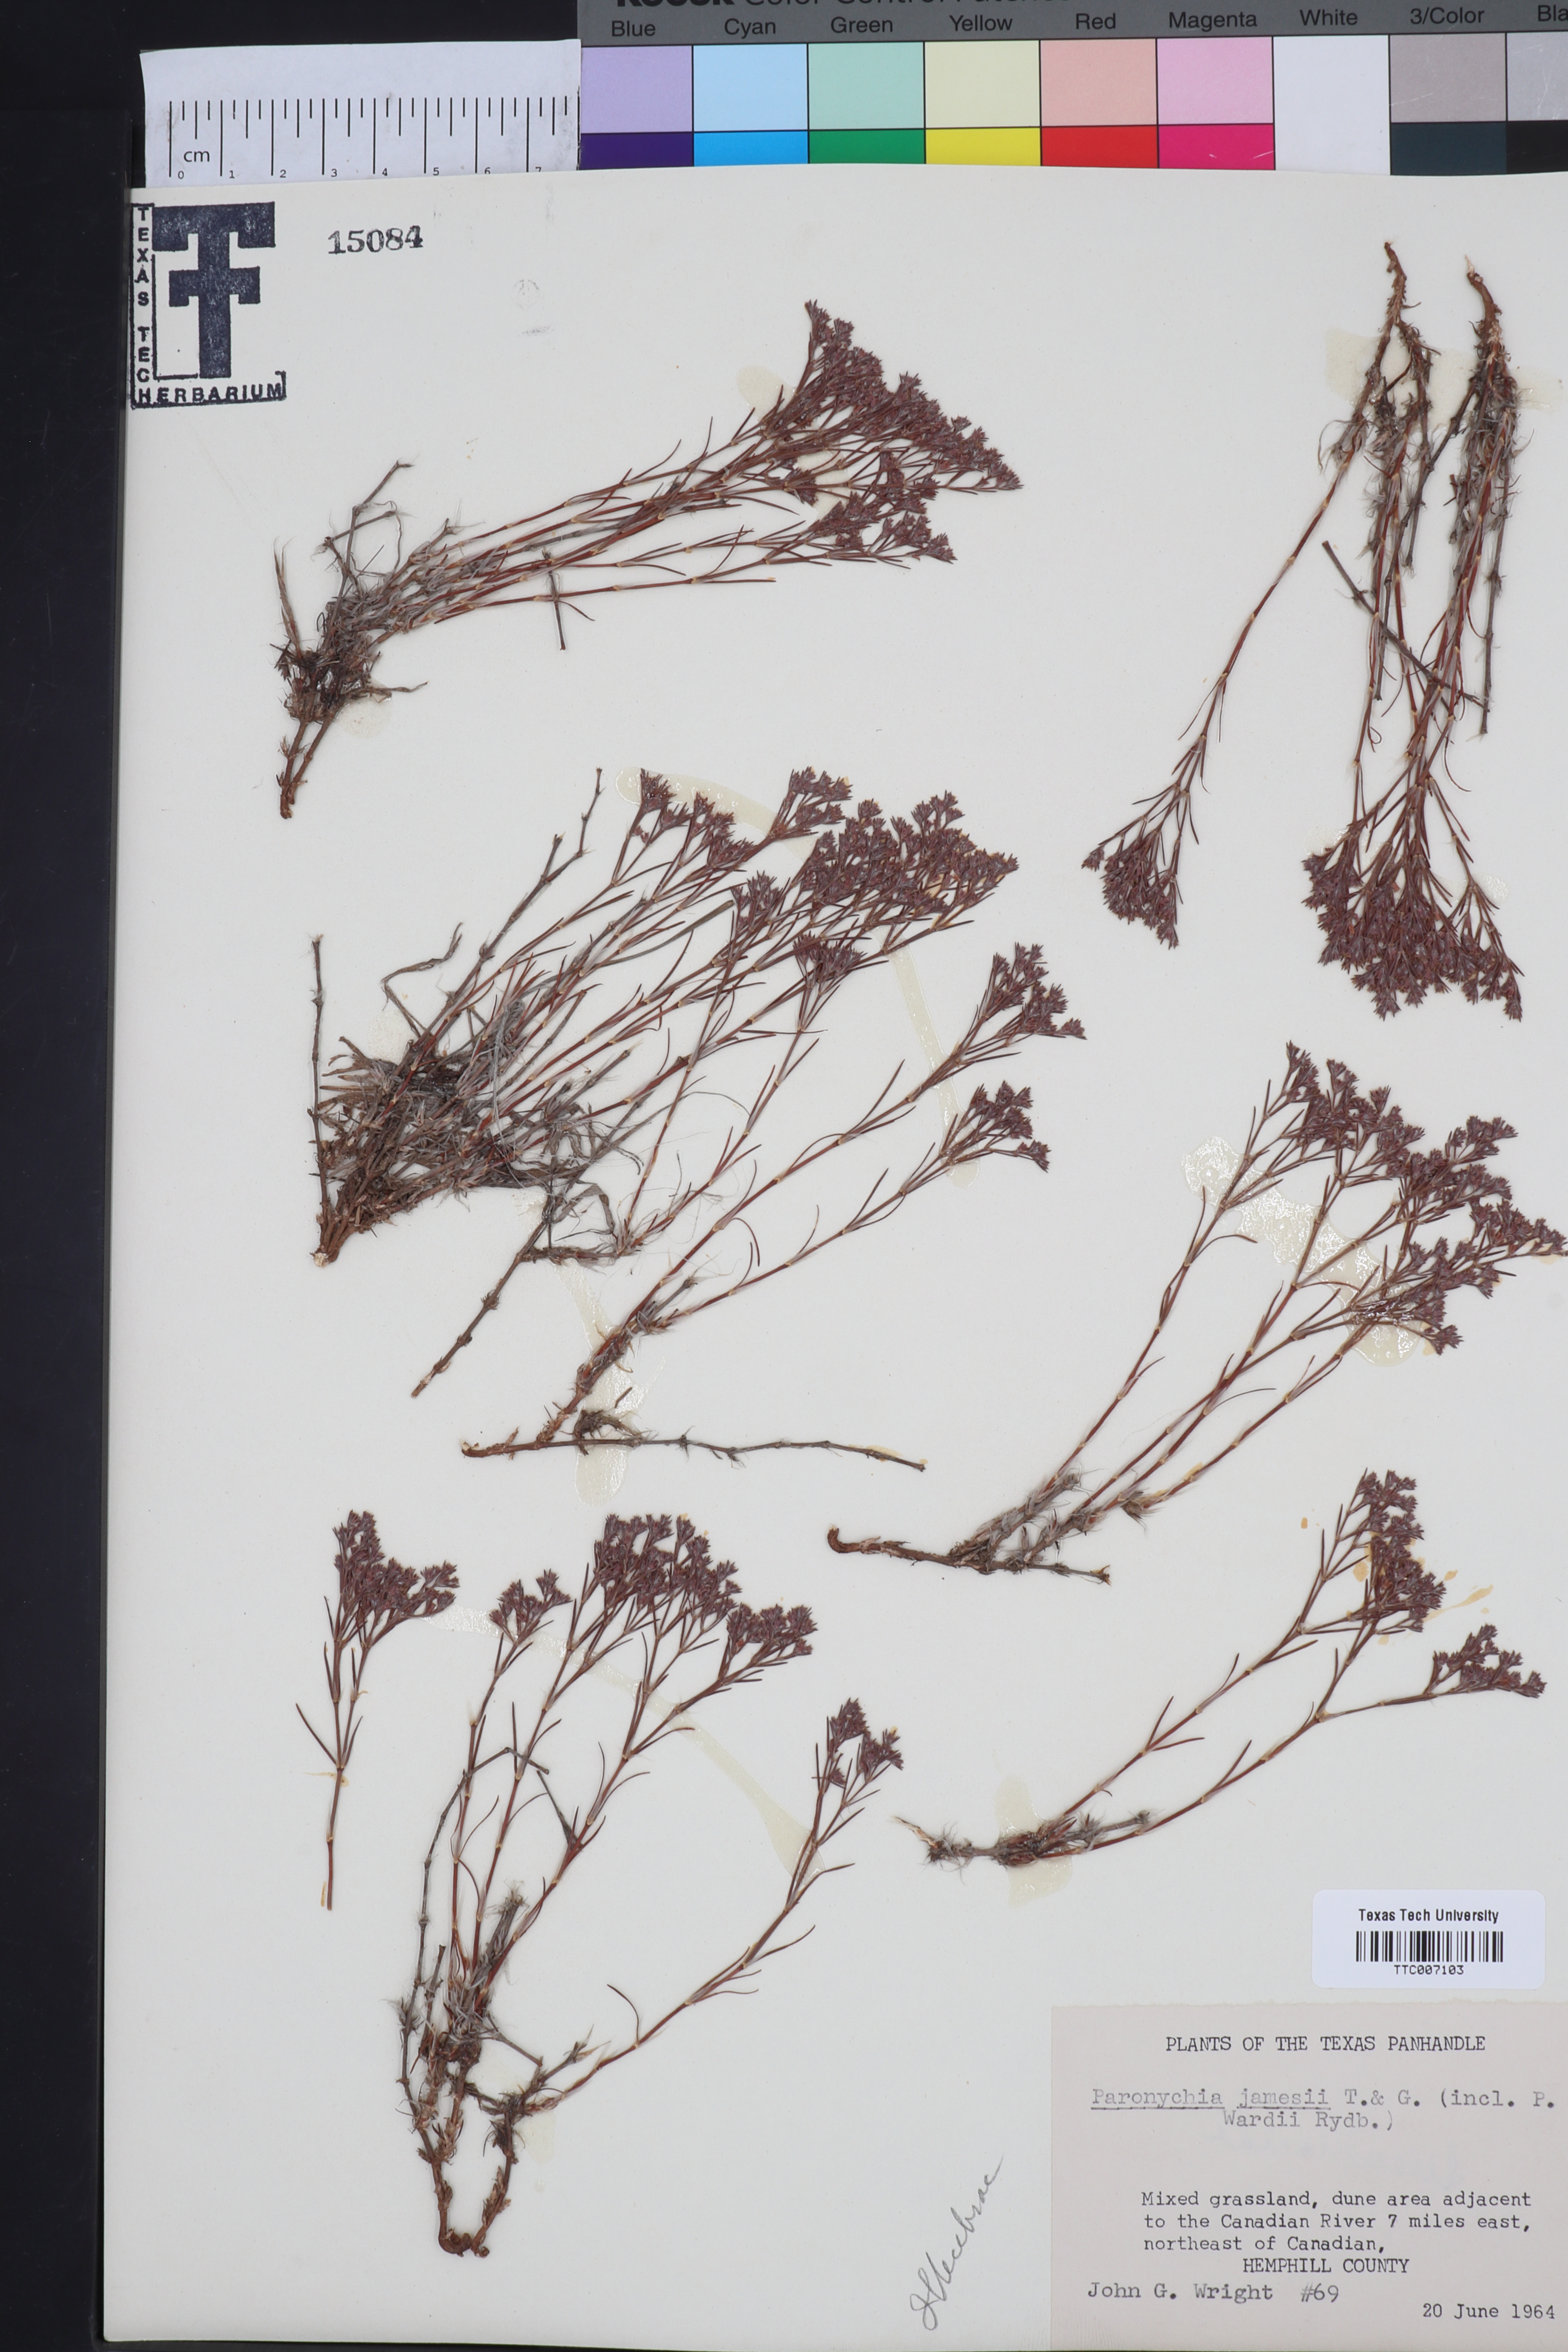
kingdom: Plantae
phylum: Tracheophyta
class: Magnoliopsida
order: Caryophyllales
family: Caryophyllaceae
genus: Paronychia
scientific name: Paronychia jamesii
